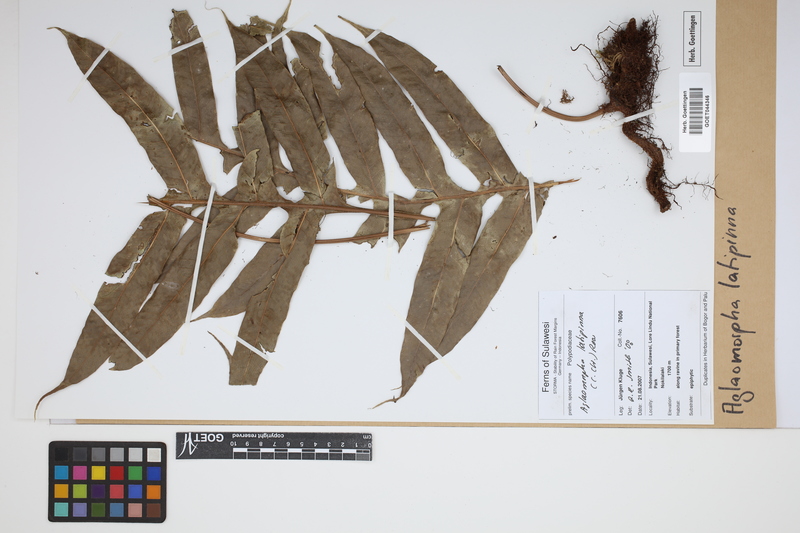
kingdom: Plantae
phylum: Tracheophyta
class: Polypodiopsida
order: Polypodiales
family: Polypodiaceae
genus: Drynaria
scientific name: Drynaria heraclea
